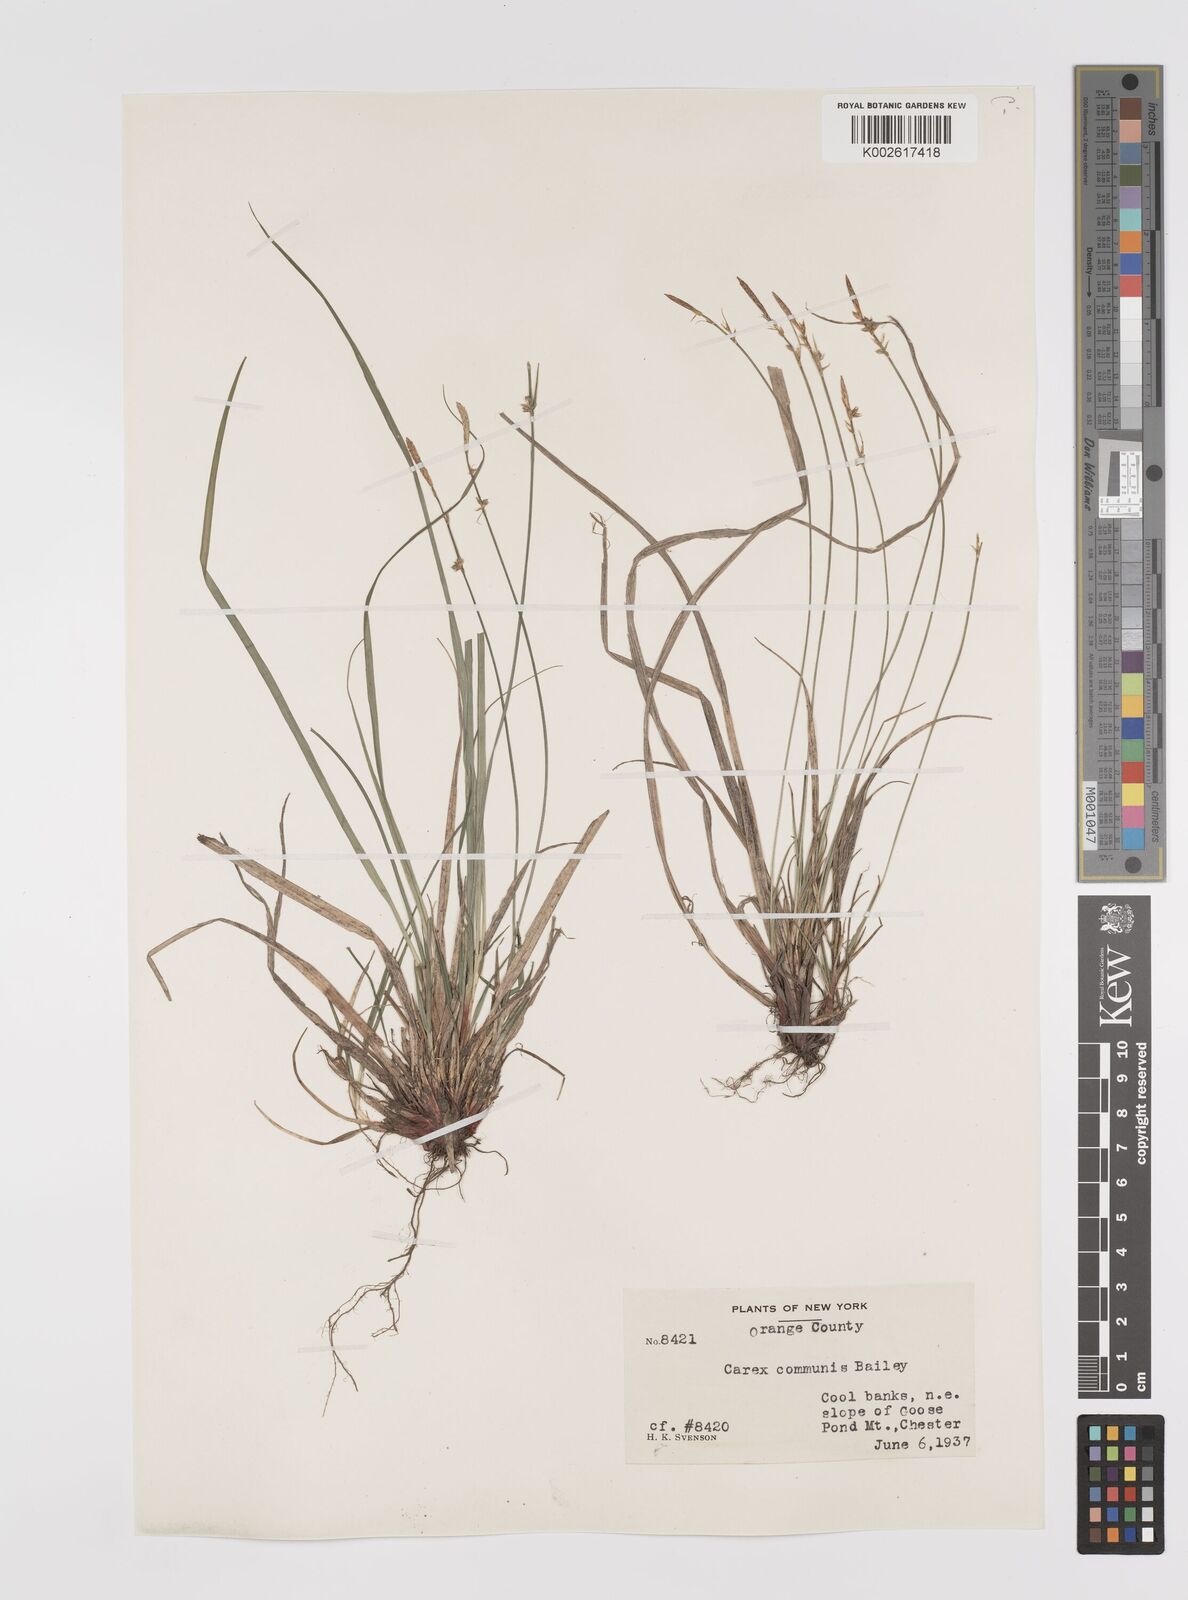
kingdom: Plantae
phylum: Tracheophyta
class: Liliopsida
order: Poales
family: Cyperaceae
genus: Carex
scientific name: Carex communis
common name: Colonial oak sedge
